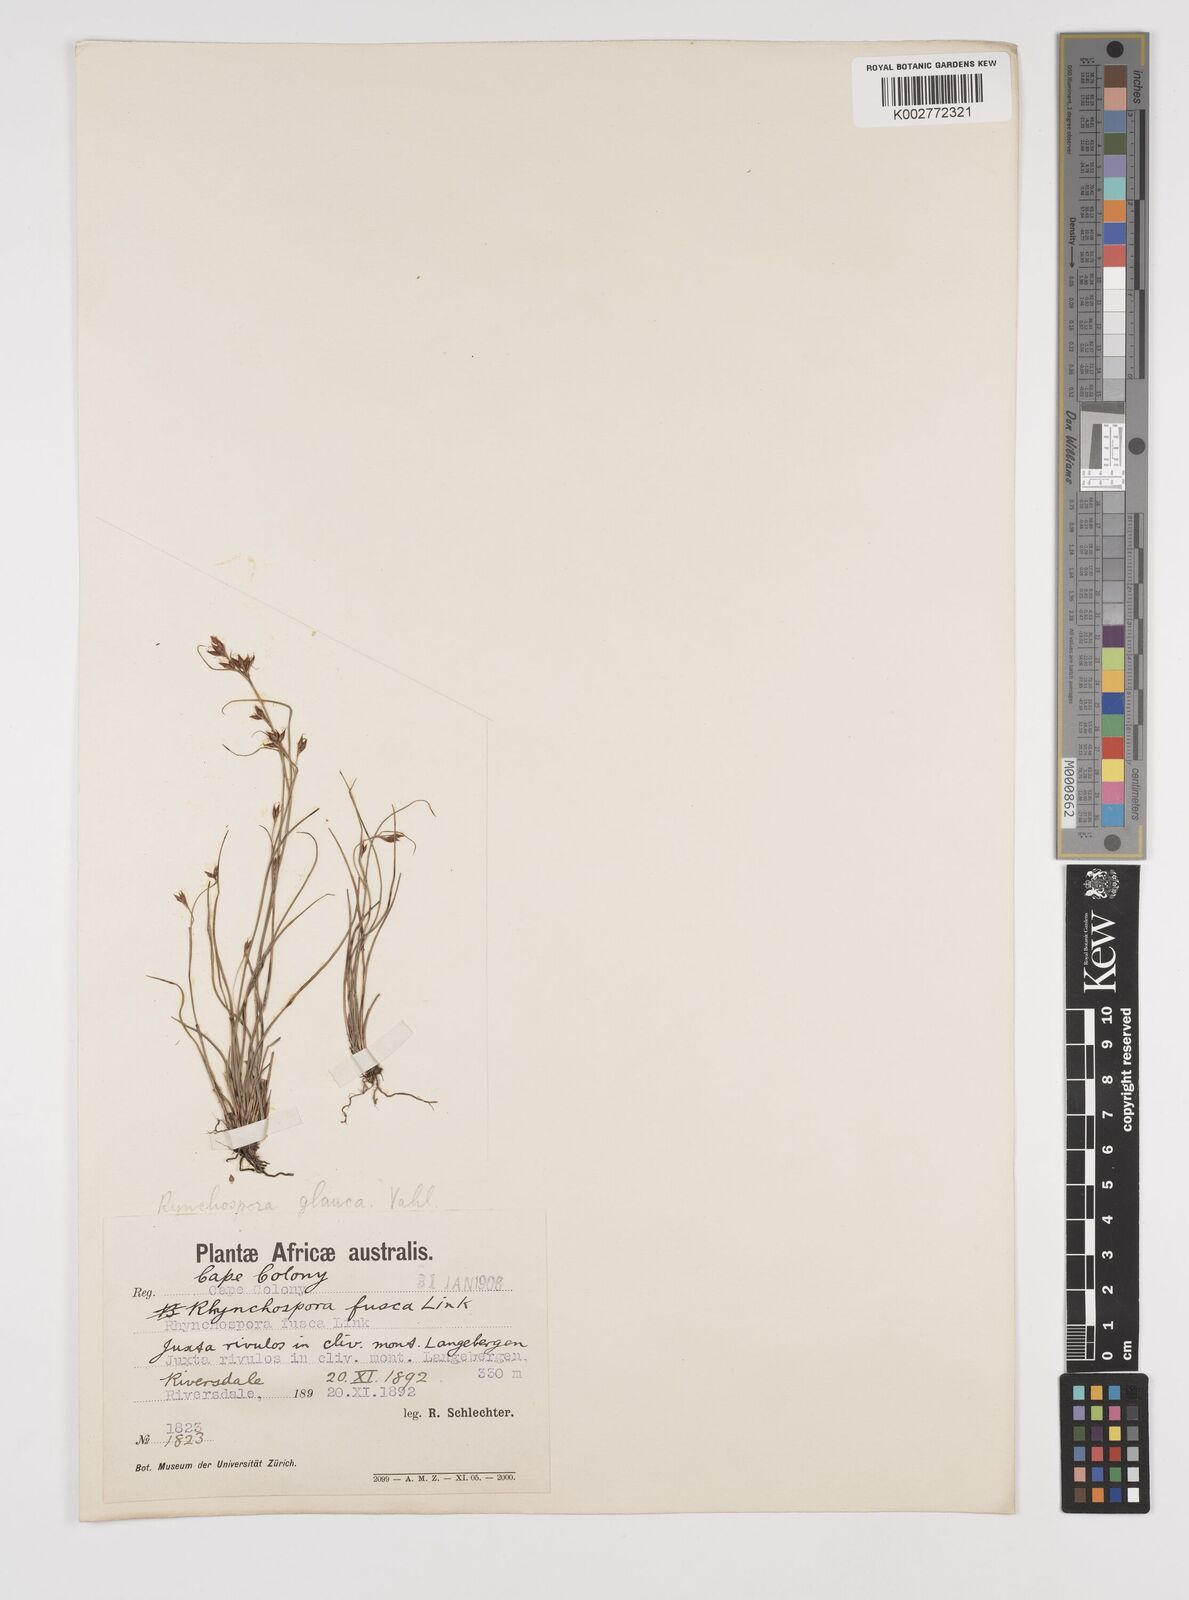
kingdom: Plantae
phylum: Tracheophyta
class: Liliopsida
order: Poales
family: Cyperaceae
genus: Rhynchospora
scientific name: Rhynchospora rugosa
